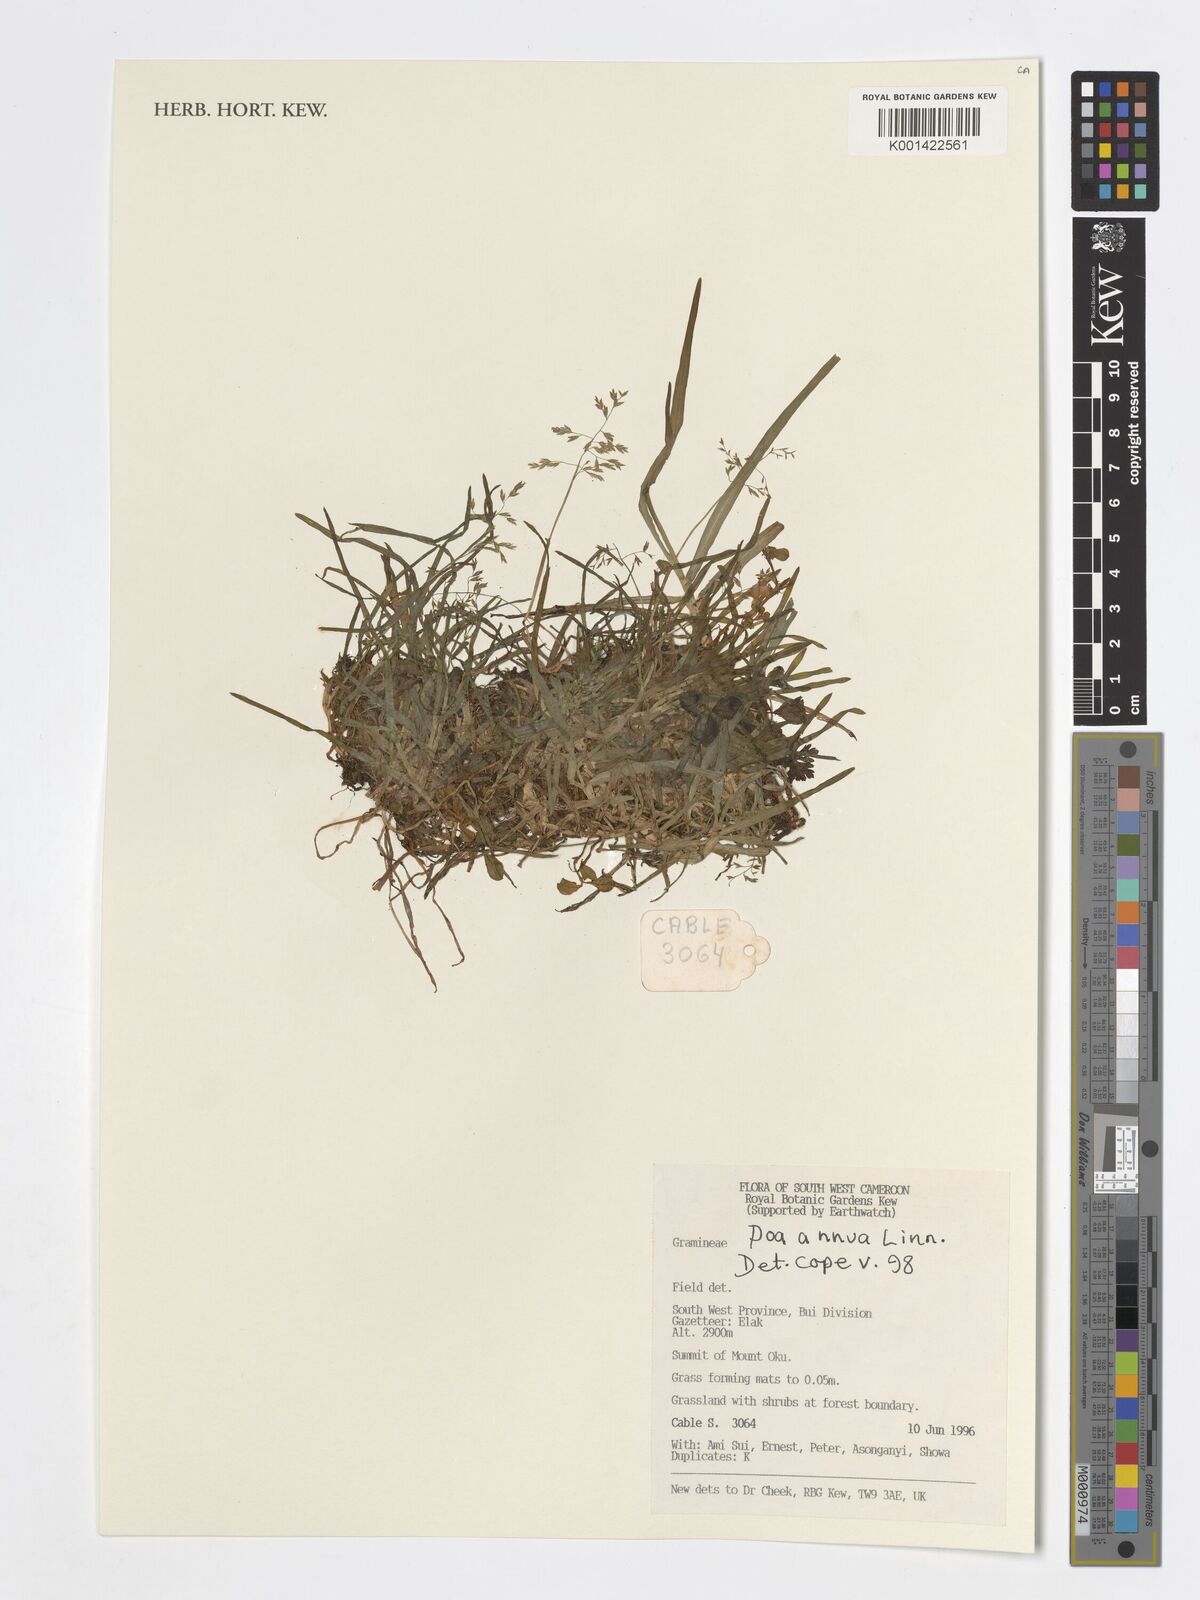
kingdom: Plantae
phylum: Tracheophyta
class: Liliopsida
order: Poales
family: Poaceae
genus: Poa
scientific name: Poa annua
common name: Annual bluegrass
